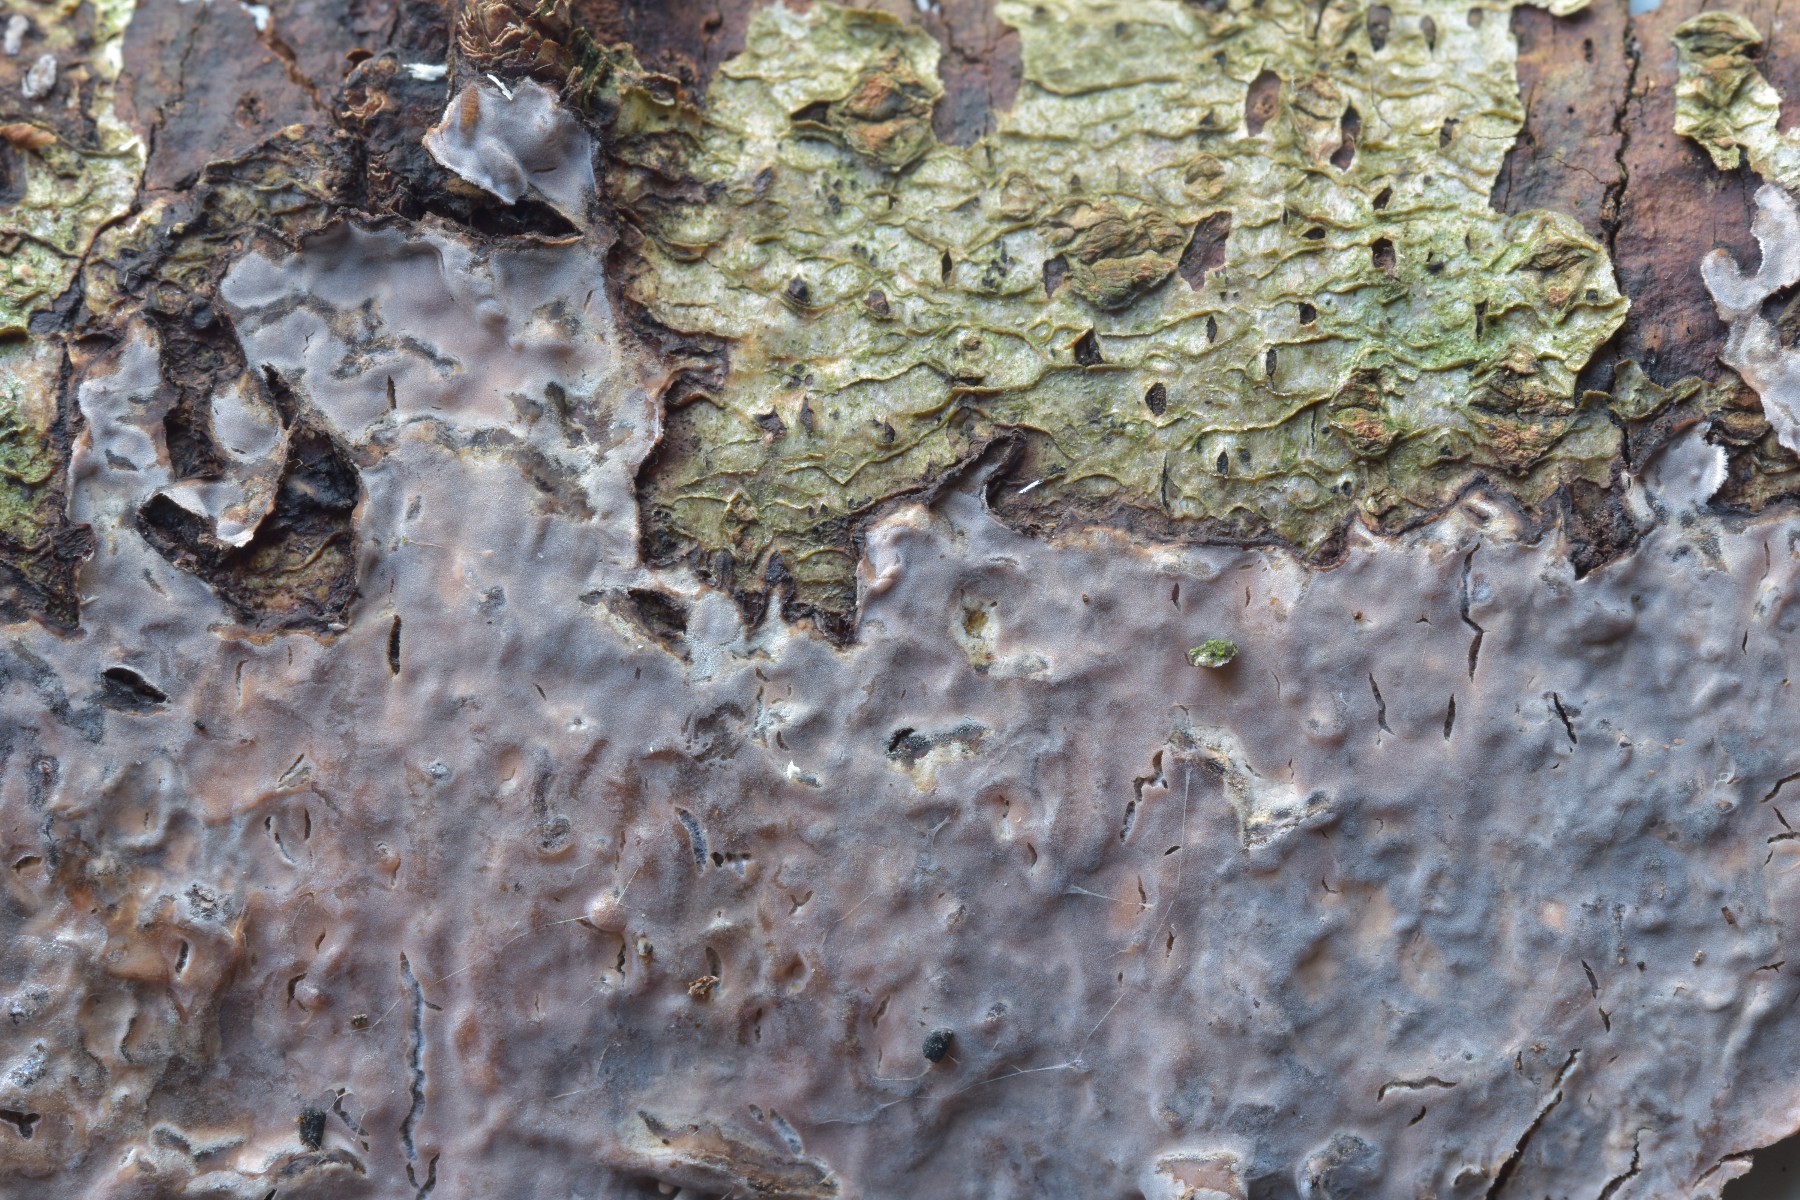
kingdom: Fungi
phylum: Basidiomycota
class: Agaricomycetes
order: Russulales
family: Peniophoraceae
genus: Peniophora
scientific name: Peniophora quercina
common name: ege-voksskind
